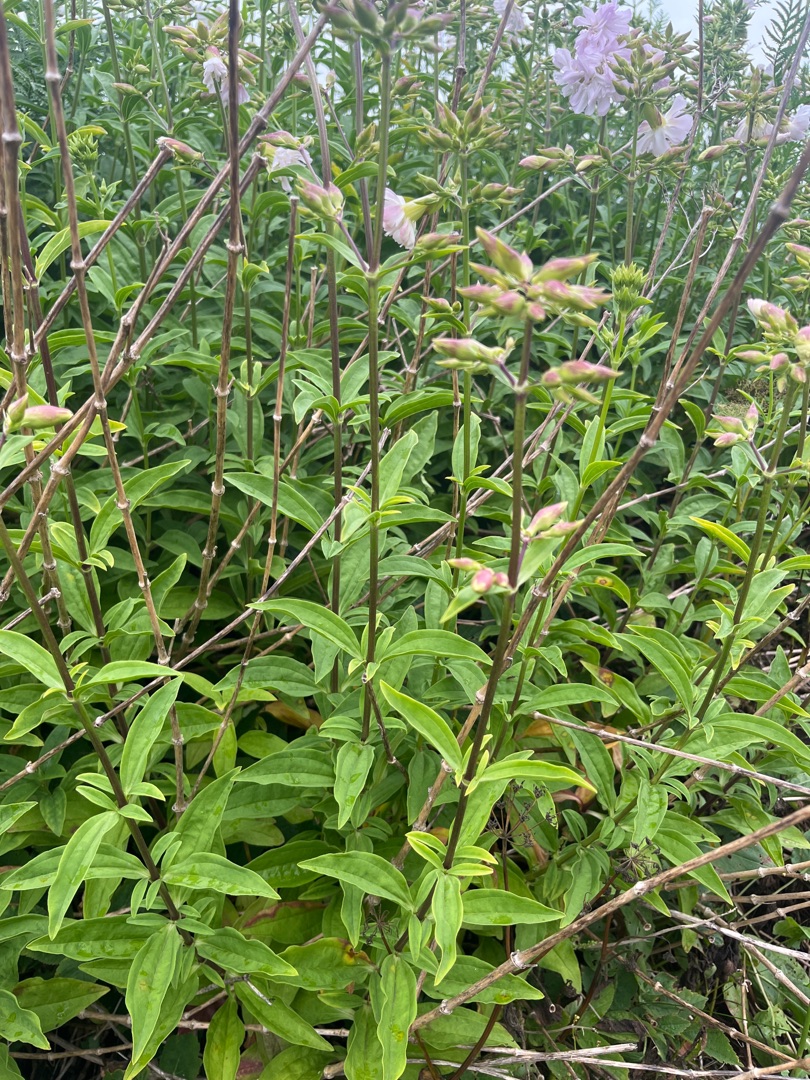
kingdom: Plantae
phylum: Tracheophyta
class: Magnoliopsida
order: Caryophyllales
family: Caryophyllaceae
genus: Saponaria
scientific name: Saponaria officinalis
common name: Sæbeurt
